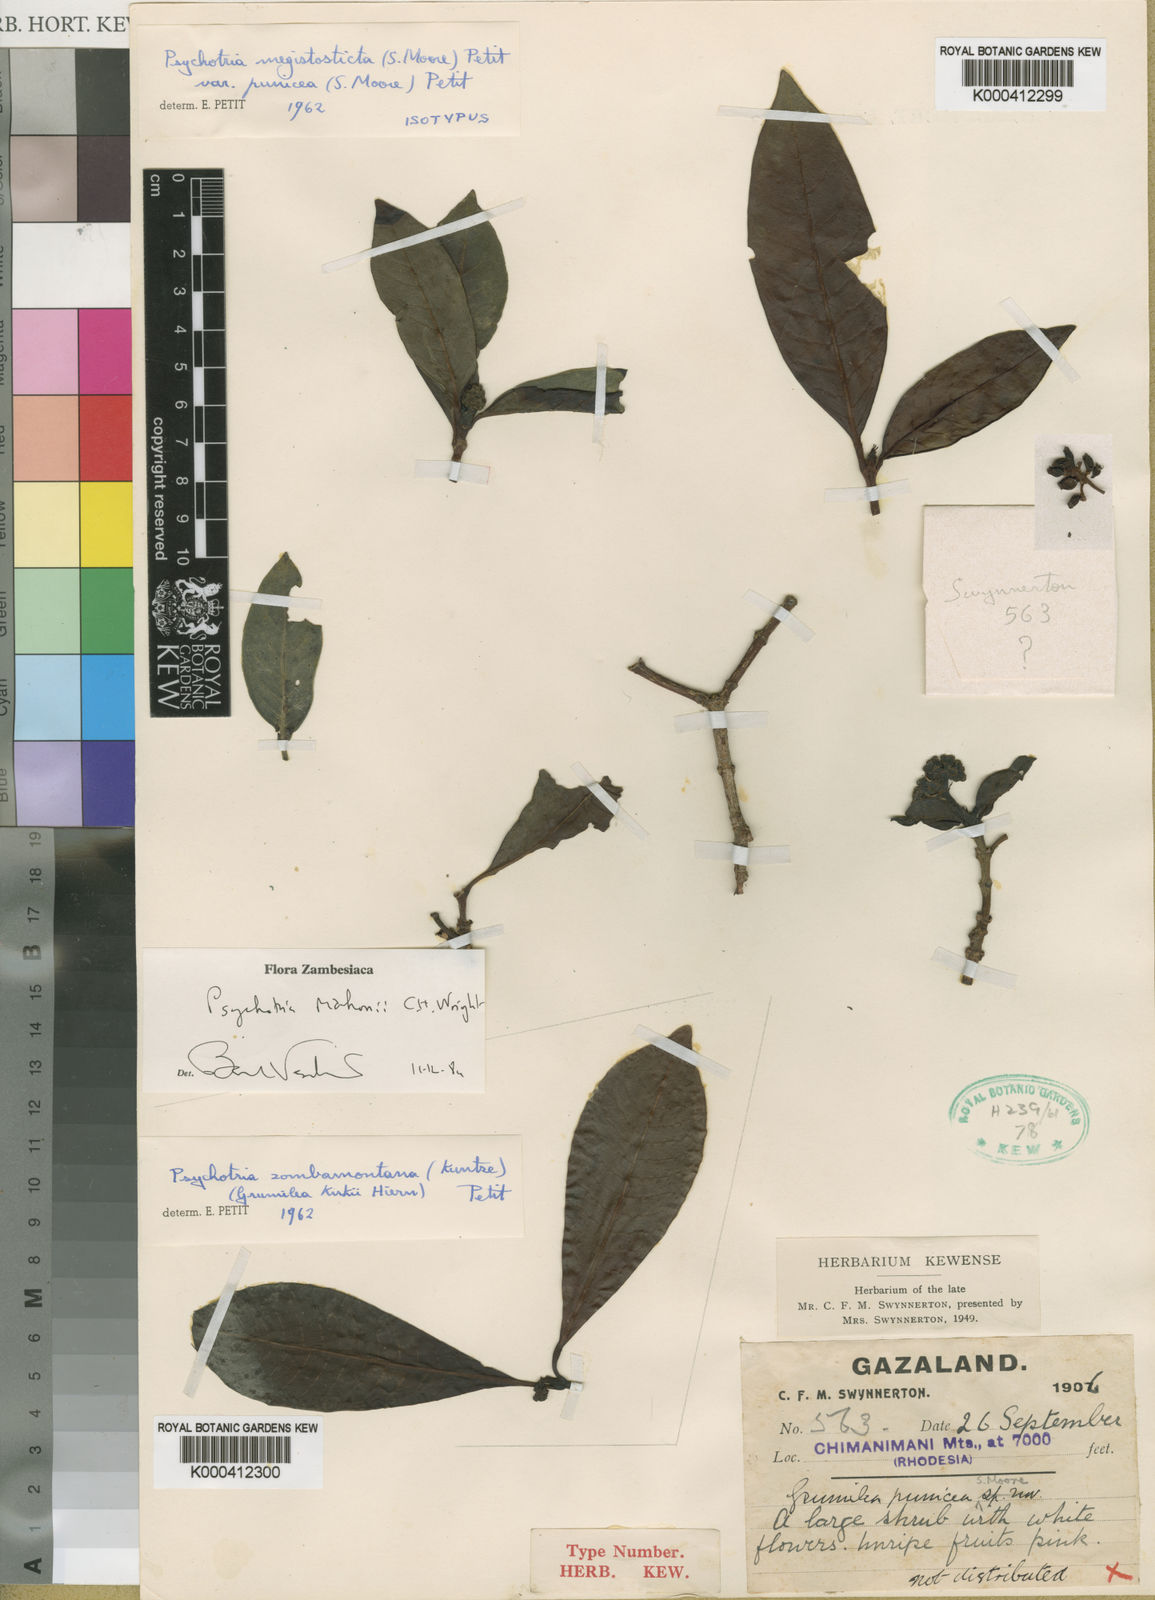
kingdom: Plantae
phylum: Tracheophyta
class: Magnoliopsida
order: Gentianales
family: Rubiaceae
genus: Psychotria
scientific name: Psychotria mahonii
